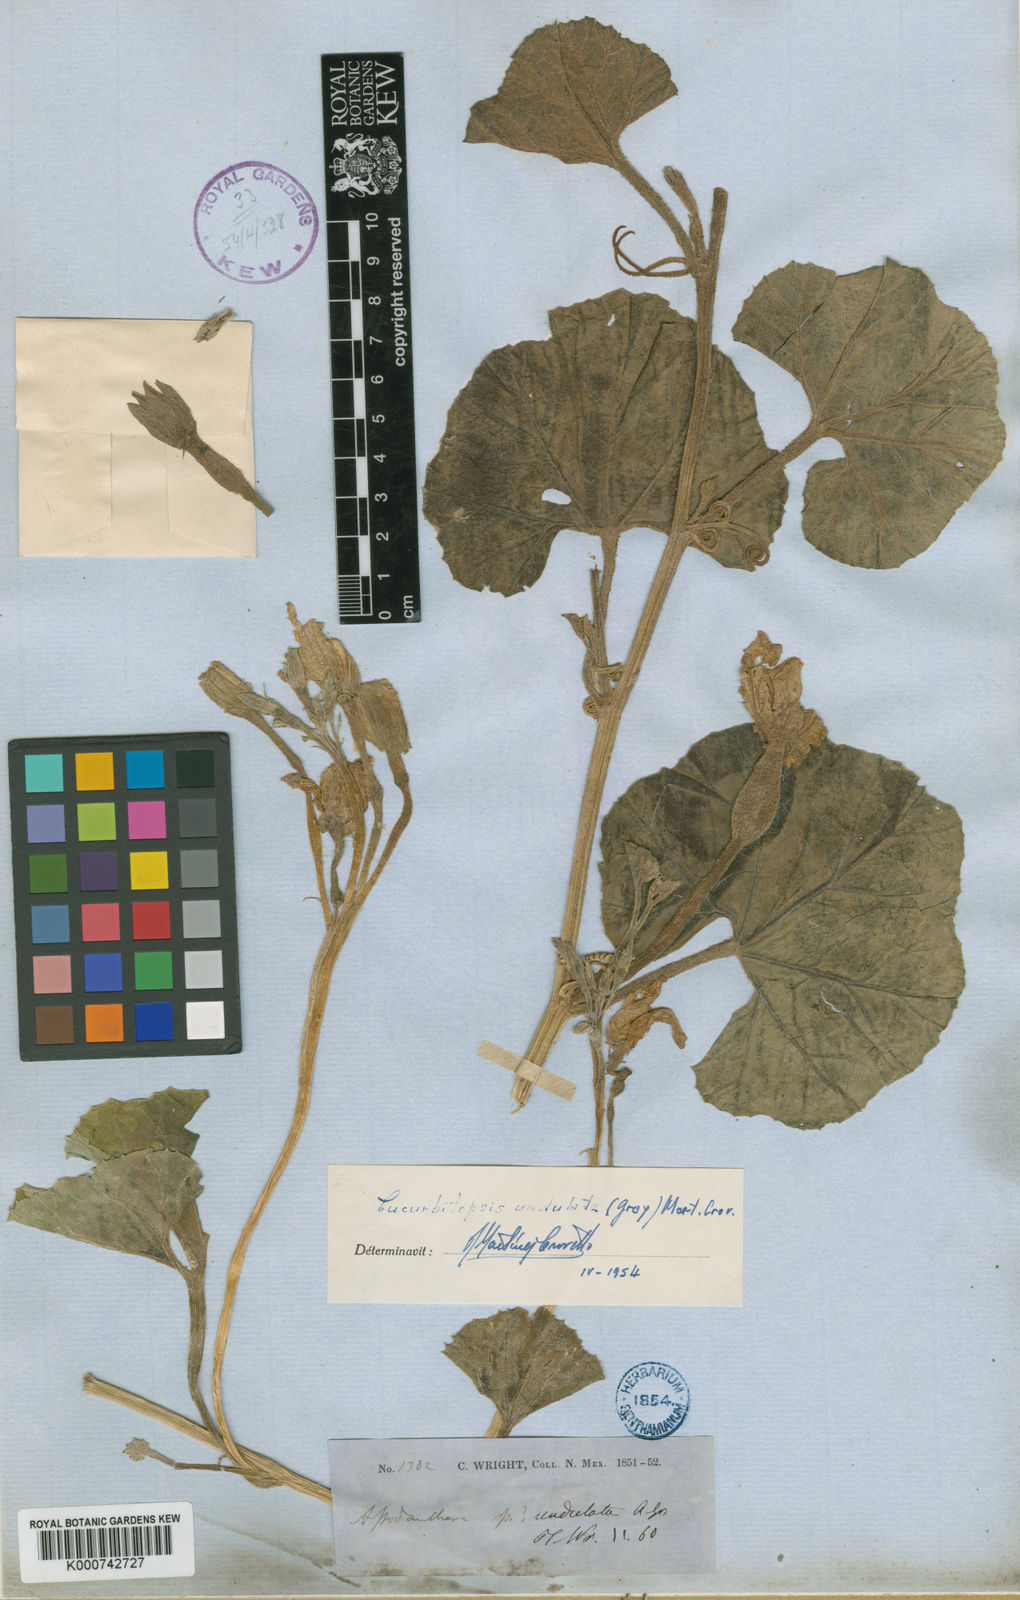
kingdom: Plantae
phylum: Tracheophyta
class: Magnoliopsida
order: Cucurbitales
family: Cucurbitaceae
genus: Apodanthera
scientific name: Apodanthera undulata
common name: Melon-loco
